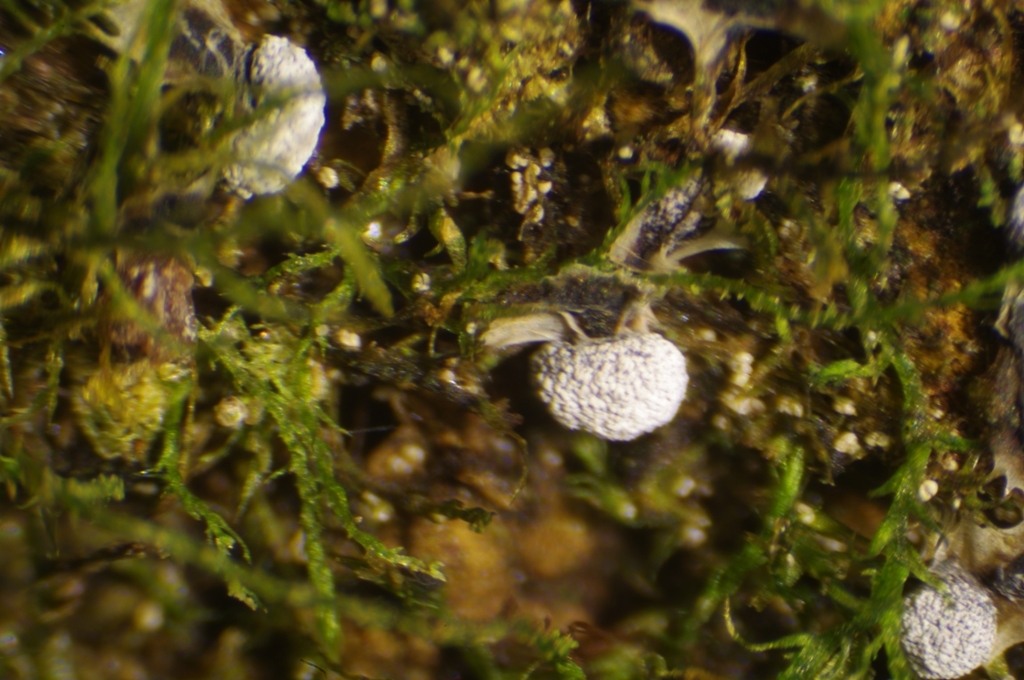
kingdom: Protozoa
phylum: Mycetozoa
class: Myxomycetes
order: Physarales
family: Physaraceae
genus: Physarum
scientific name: Physarum cinereum
